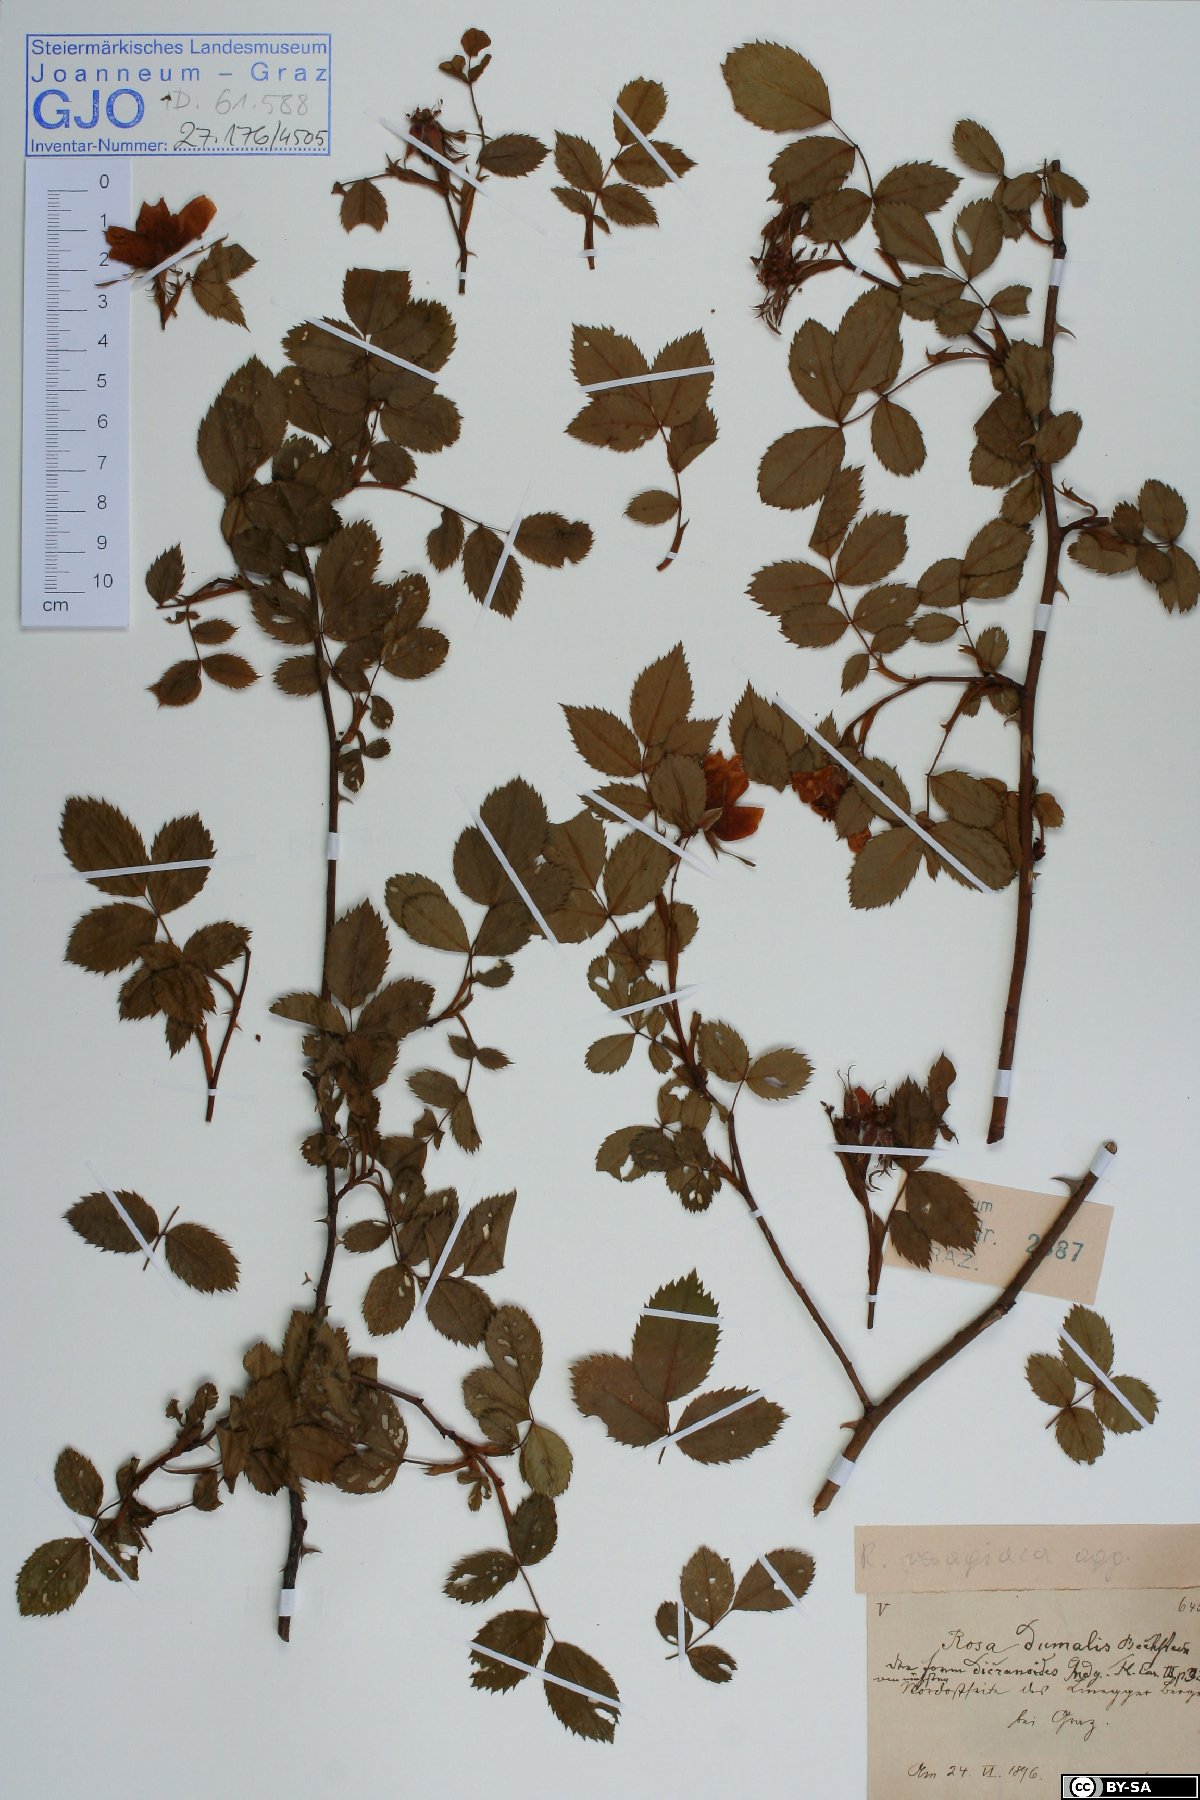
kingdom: Plantae
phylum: Tracheophyta
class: Magnoliopsida
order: Rosales
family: Rosaceae
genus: Rosa
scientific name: Rosa dumalis
